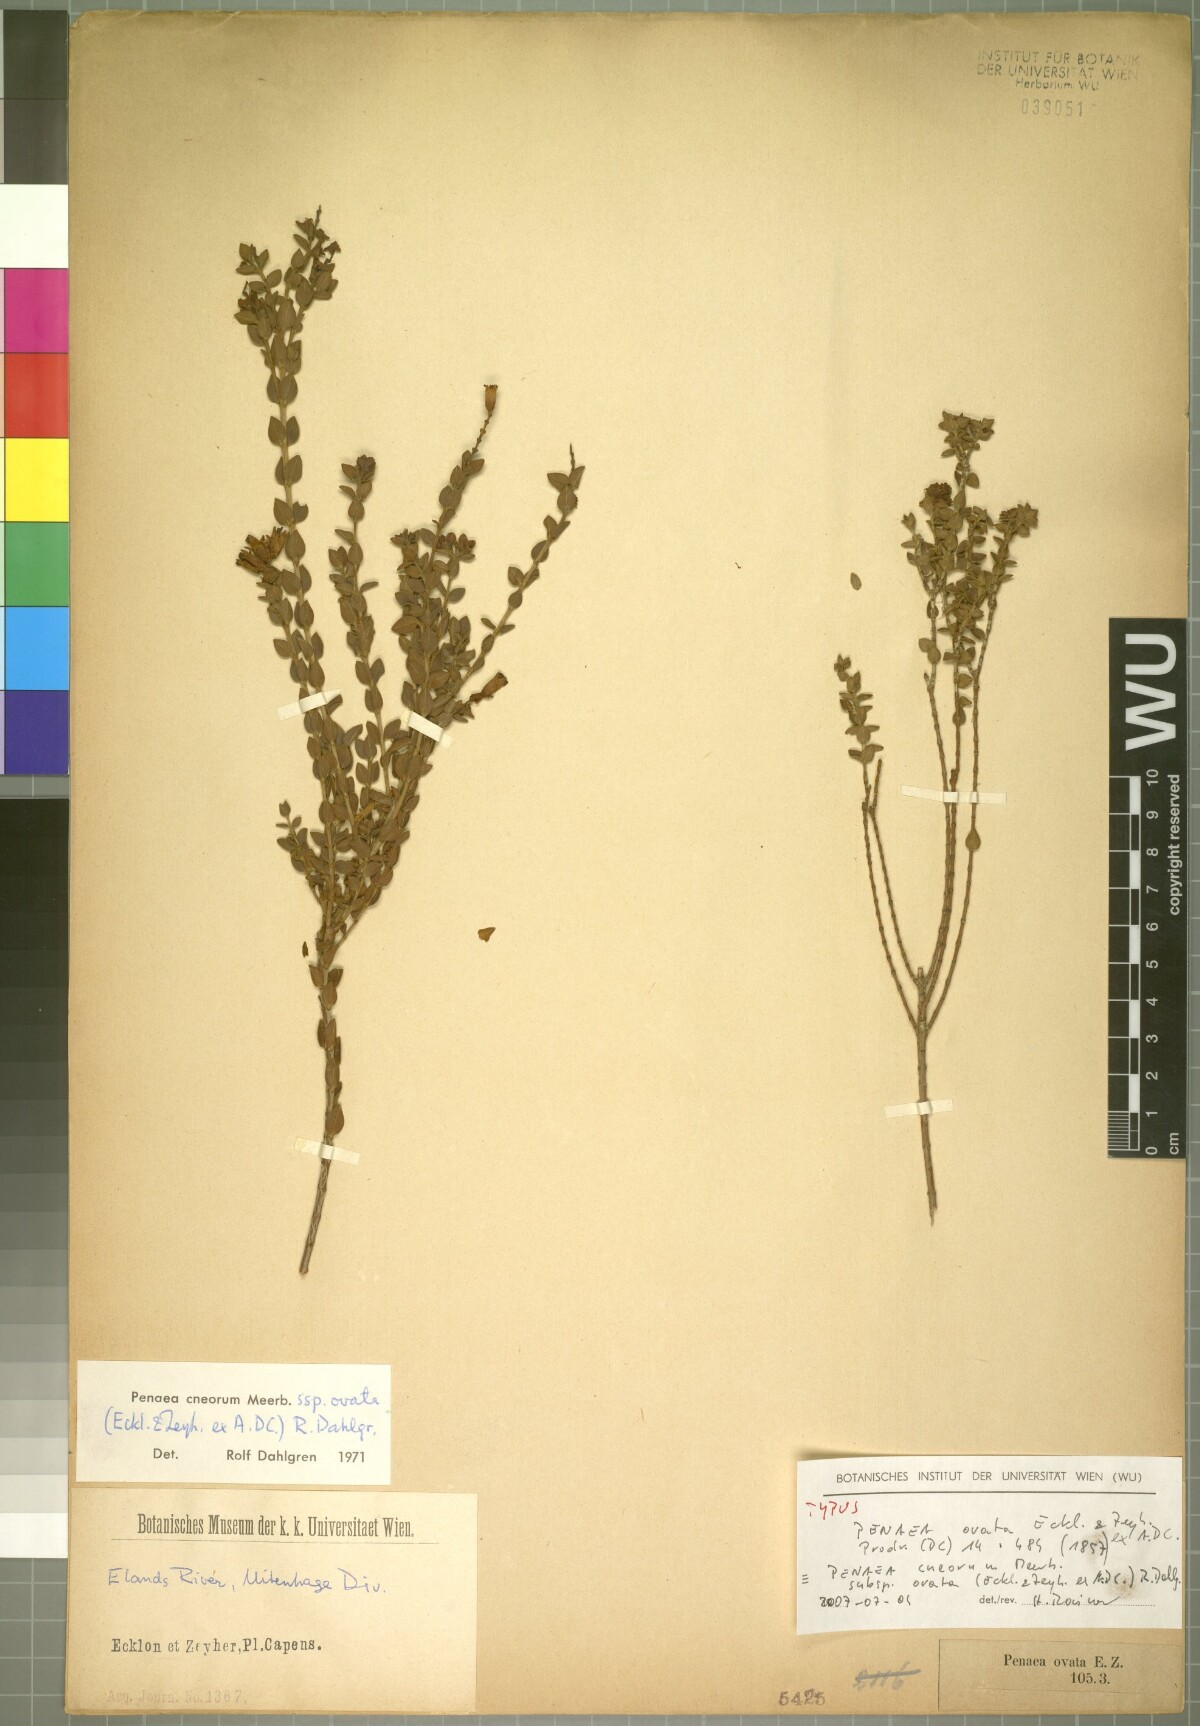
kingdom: Plantae
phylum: Tracheophyta
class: Magnoliopsida
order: Myrtales
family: Penaeaceae
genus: Penaea
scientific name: Penaea cneorum
